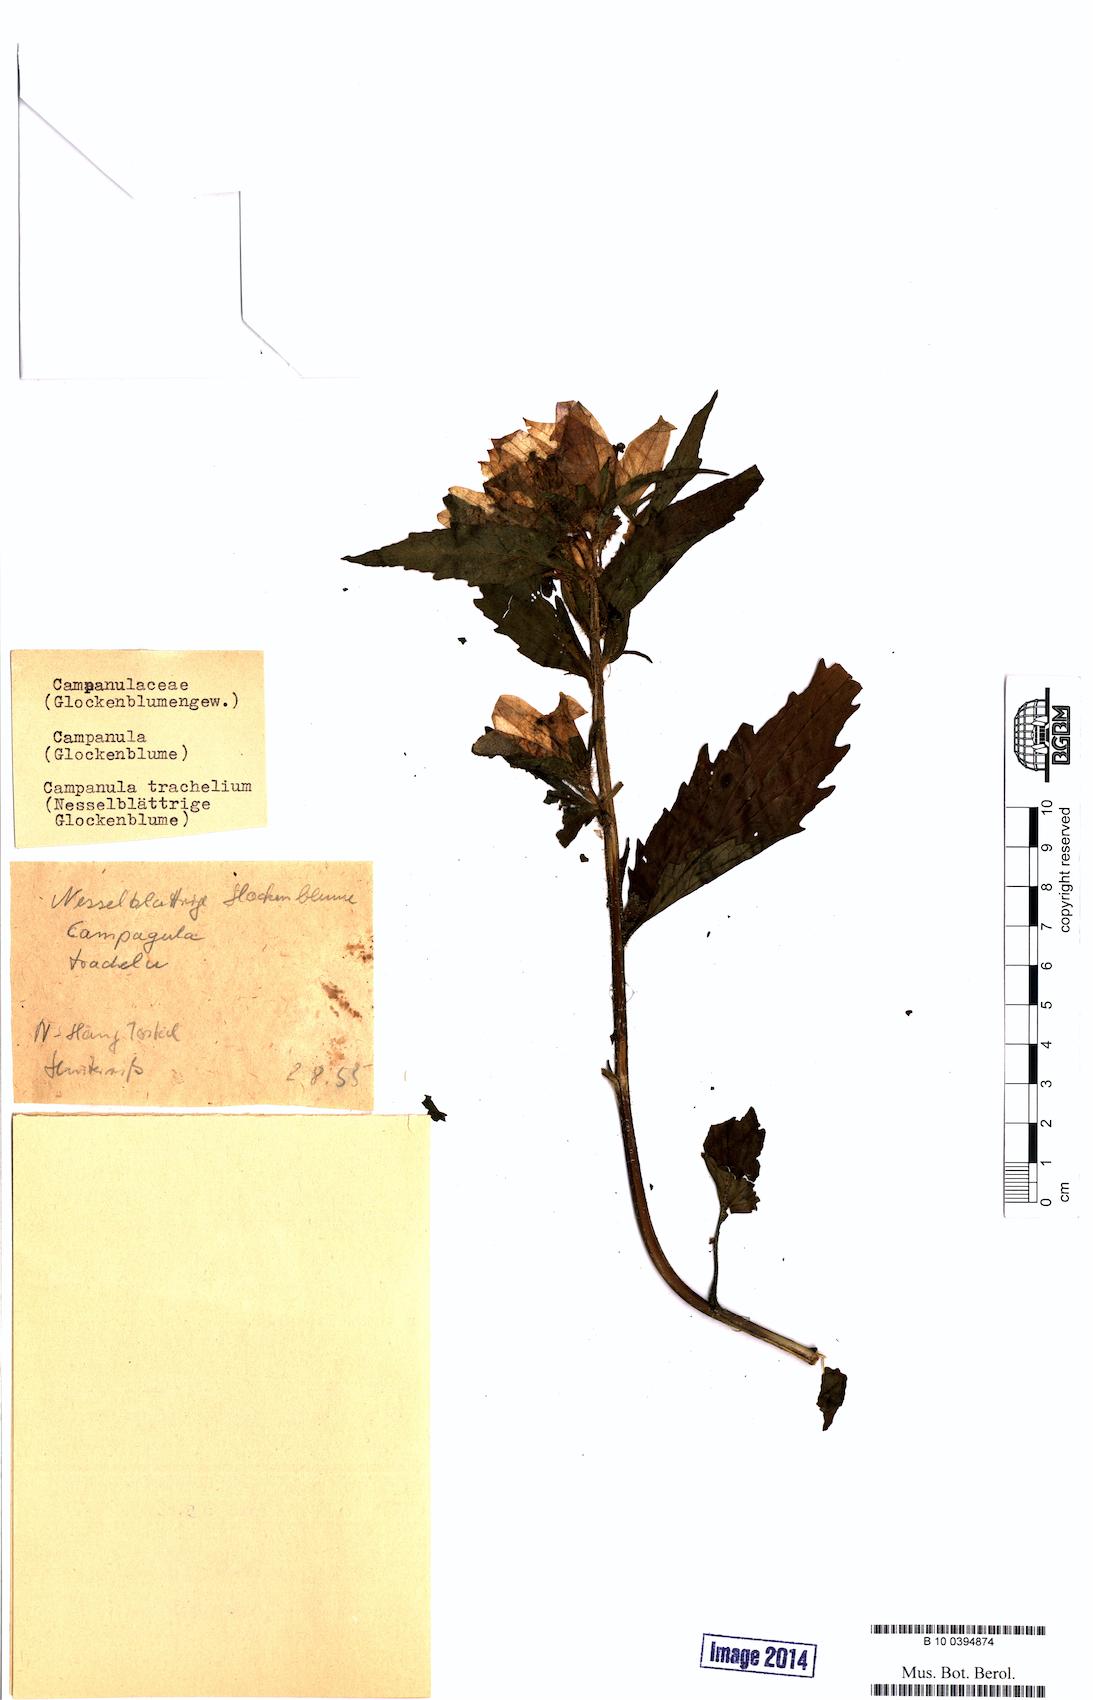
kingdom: Plantae
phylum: Tracheophyta
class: Magnoliopsida
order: Asterales
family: Campanulaceae
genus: Campanula
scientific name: Campanula trachelium
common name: Nettle-leaved bellflower
